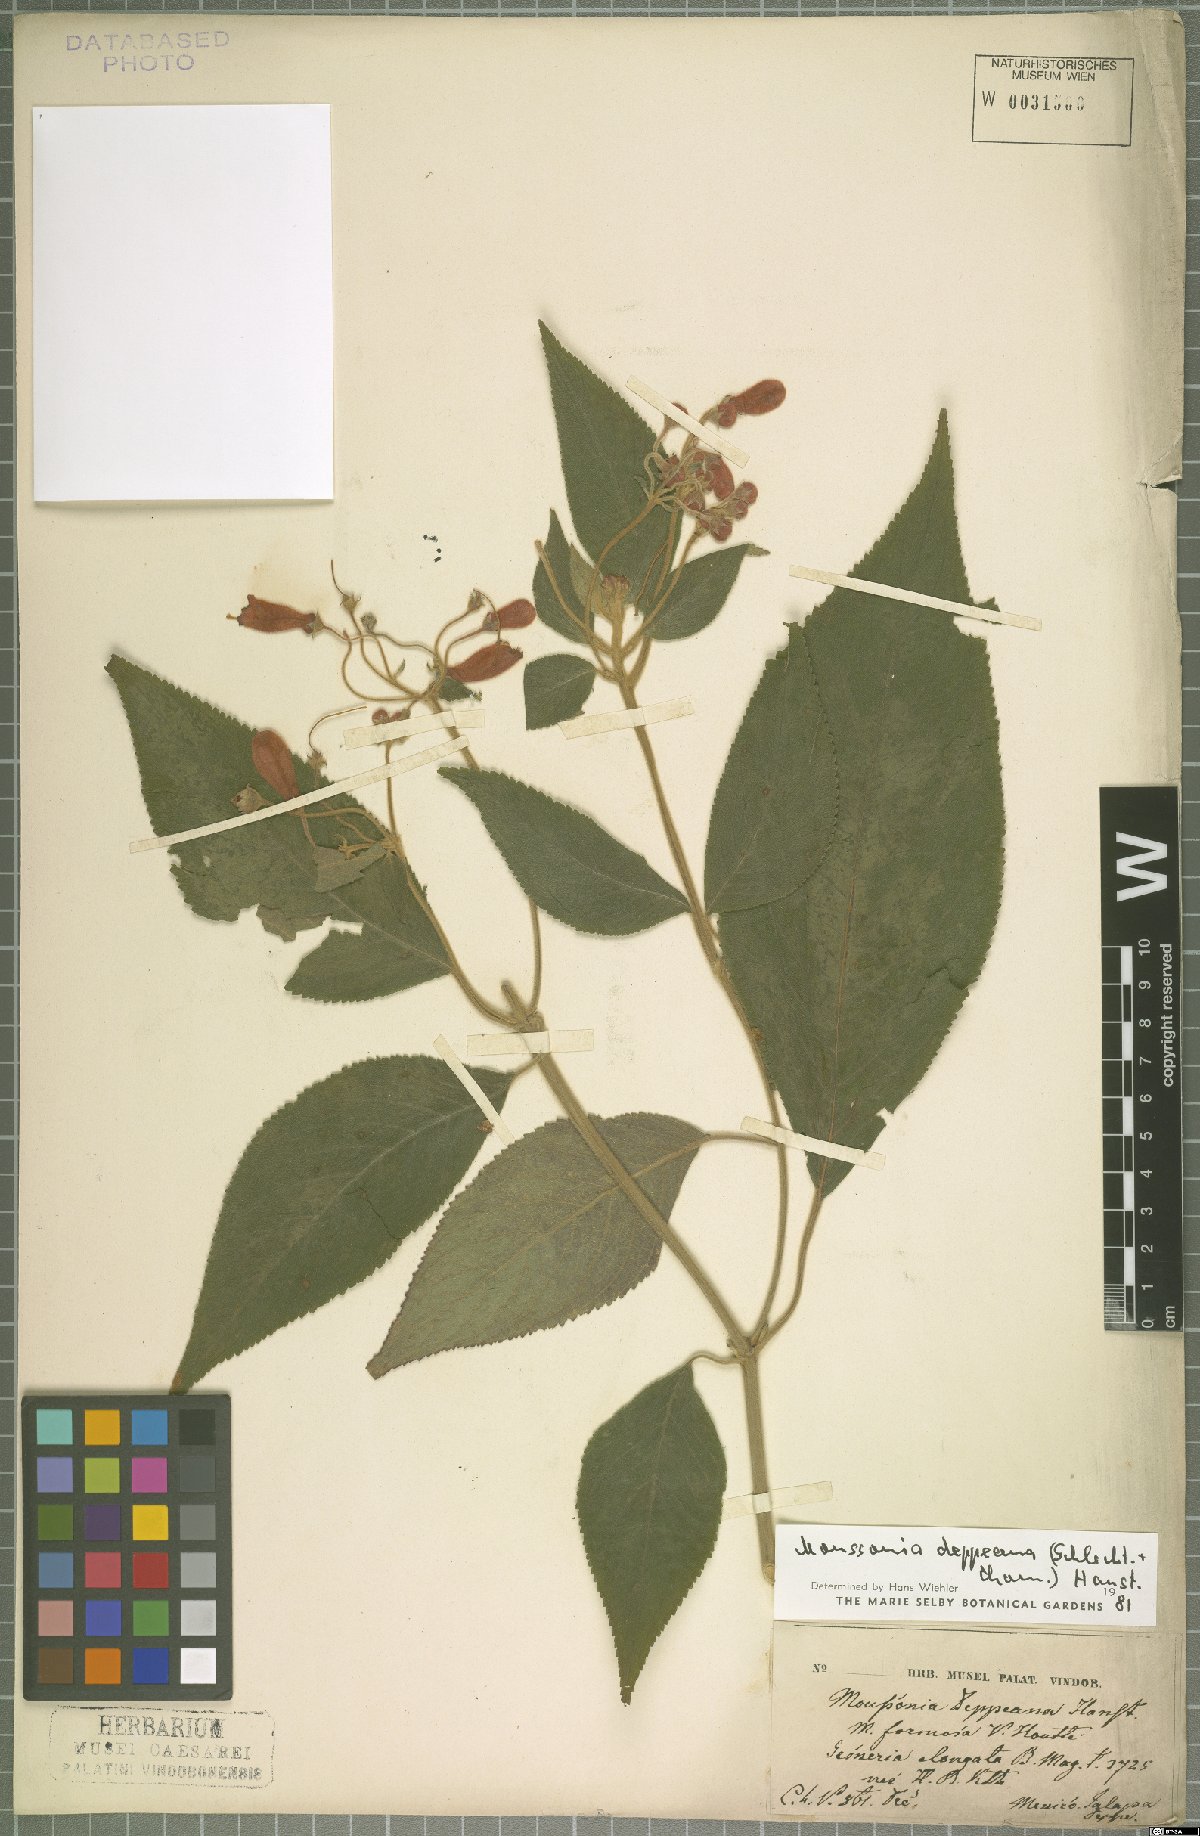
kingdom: Plantae
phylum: Tracheophyta
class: Magnoliopsida
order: Lamiales
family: Gesneriaceae
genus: Moussonia
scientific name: Moussonia deppeana
